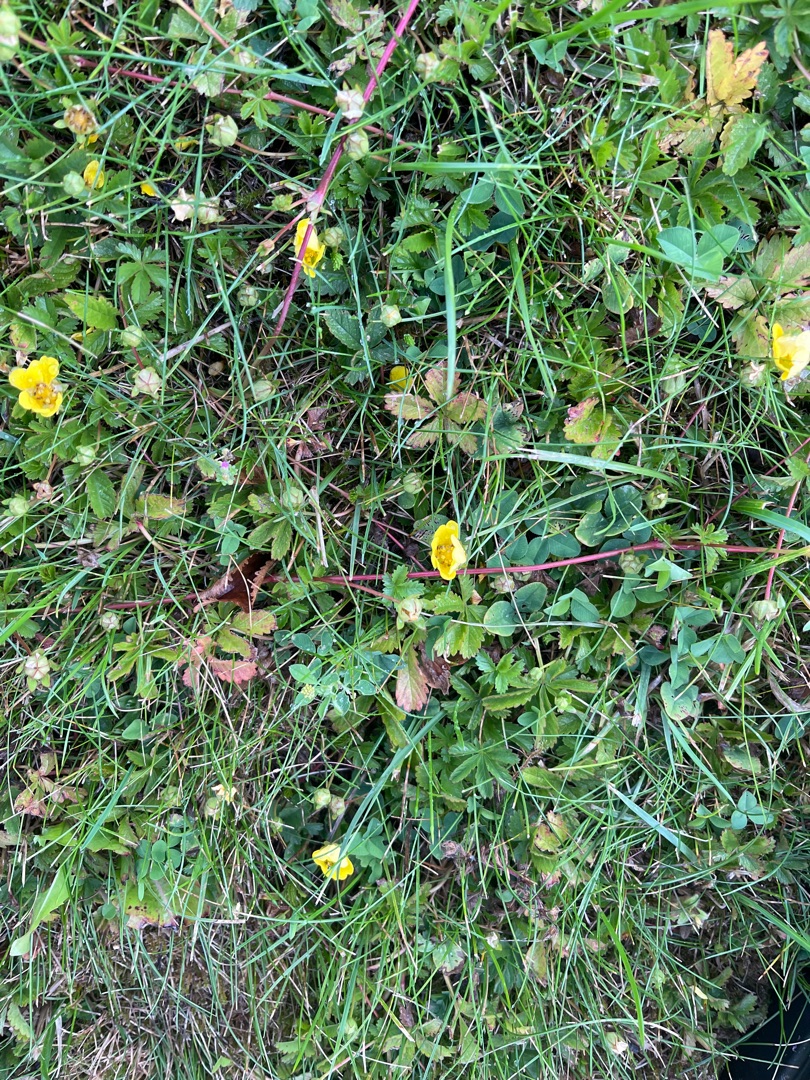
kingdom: Plantae
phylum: Tracheophyta
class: Magnoliopsida
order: Rosales
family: Rosaceae
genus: Potentilla
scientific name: Potentilla reptans
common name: Krybende potentil
